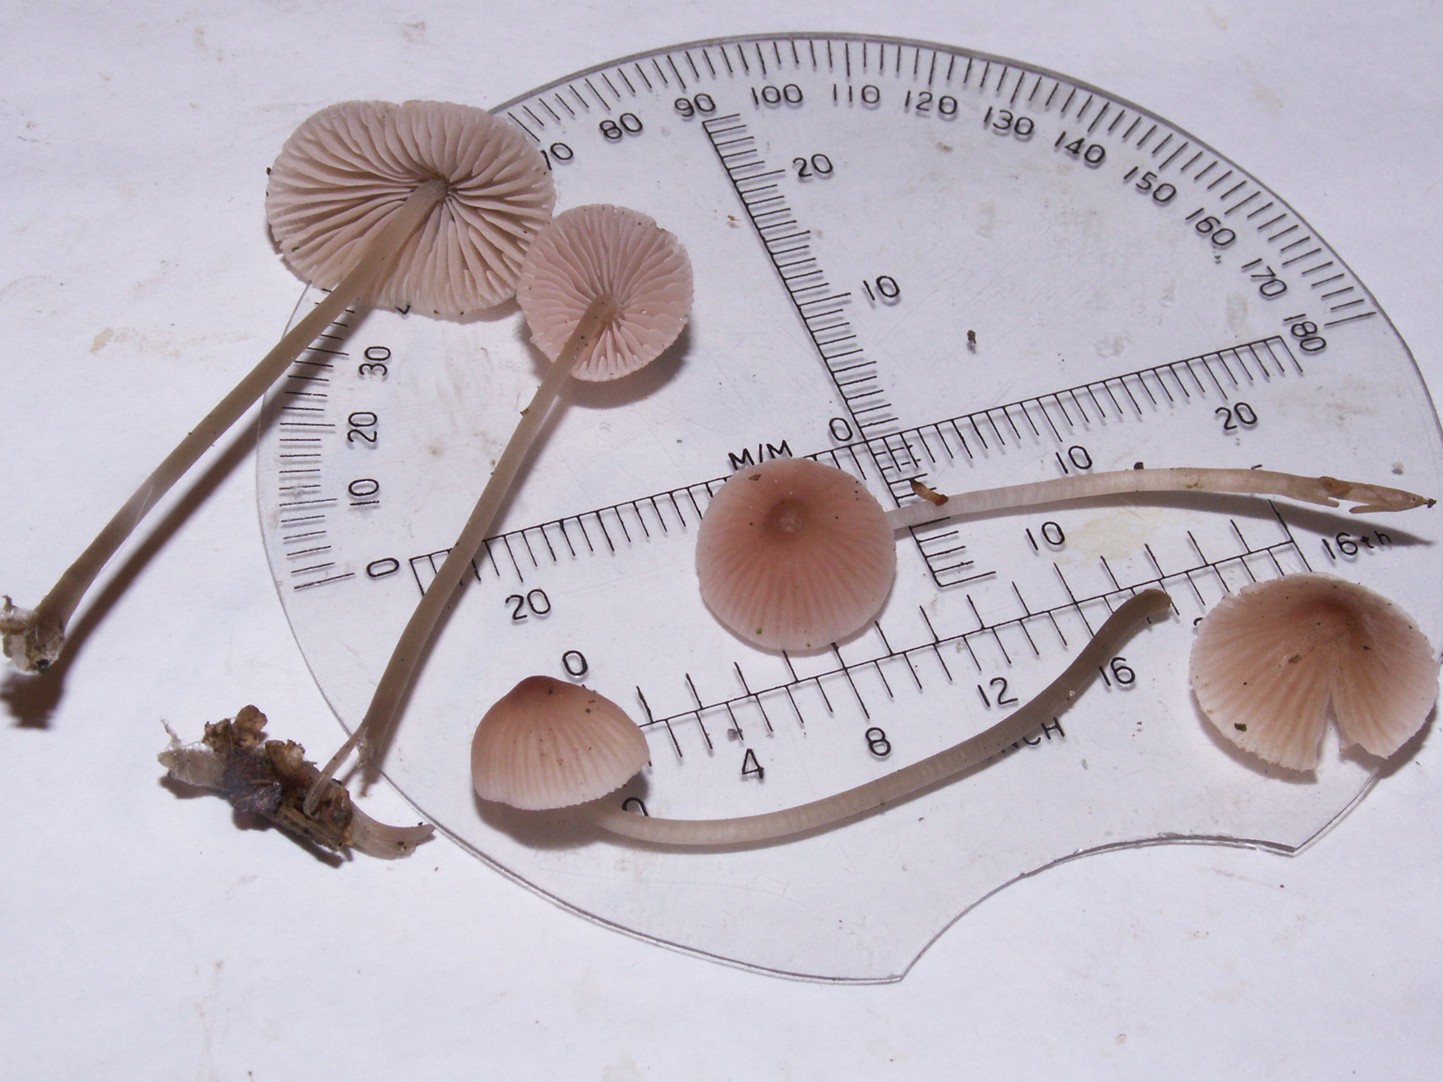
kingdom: Fungi
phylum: Basidiomycota
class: Agaricomycetes
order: Agaricales
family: Mycenaceae
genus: Mycena
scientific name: Mycena metata
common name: rødlig huesvamp
